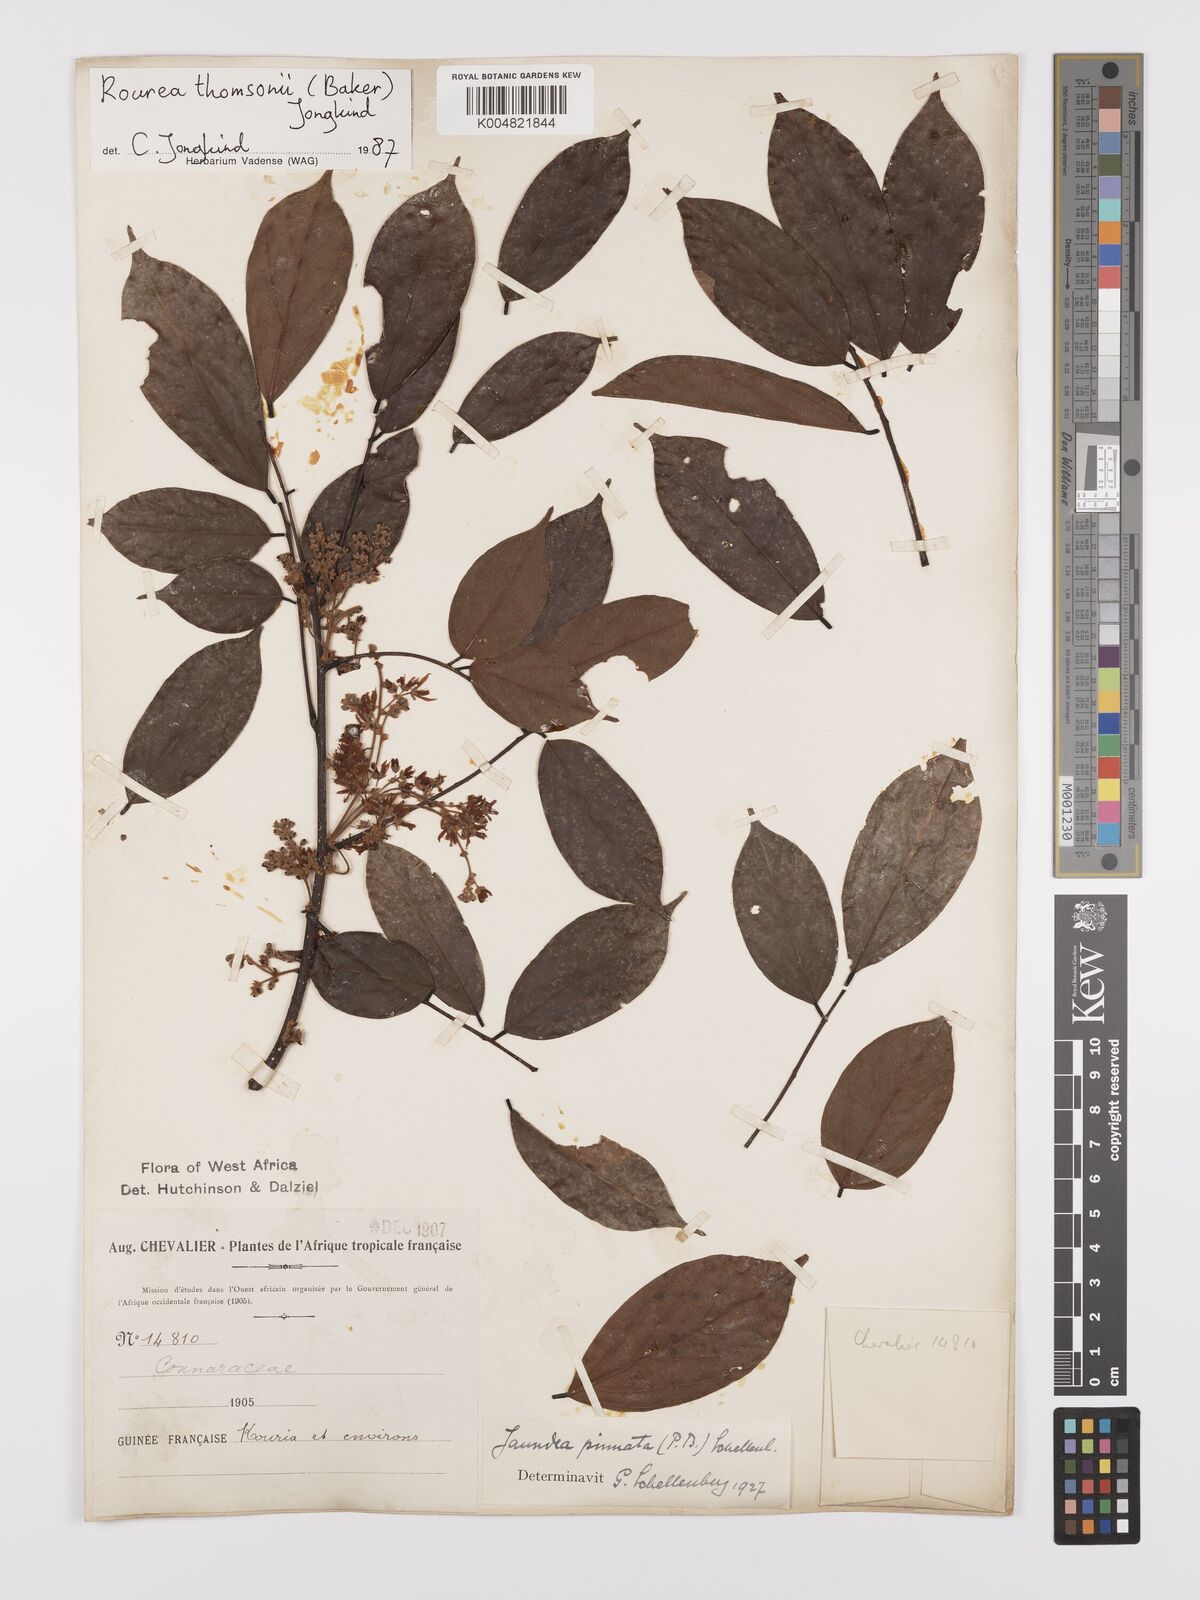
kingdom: Plantae
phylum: Tracheophyta
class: Magnoliopsida
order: Oxalidales
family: Connaraceae
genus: Rourea
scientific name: Rourea pinnata
